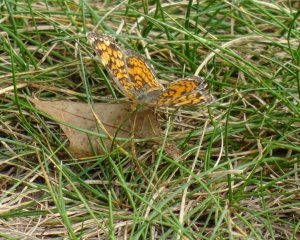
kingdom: Animalia
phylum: Arthropoda
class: Insecta
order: Lepidoptera
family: Nymphalidae
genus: Phyciodes
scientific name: Phyciodes tharos
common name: Northern Crescent
